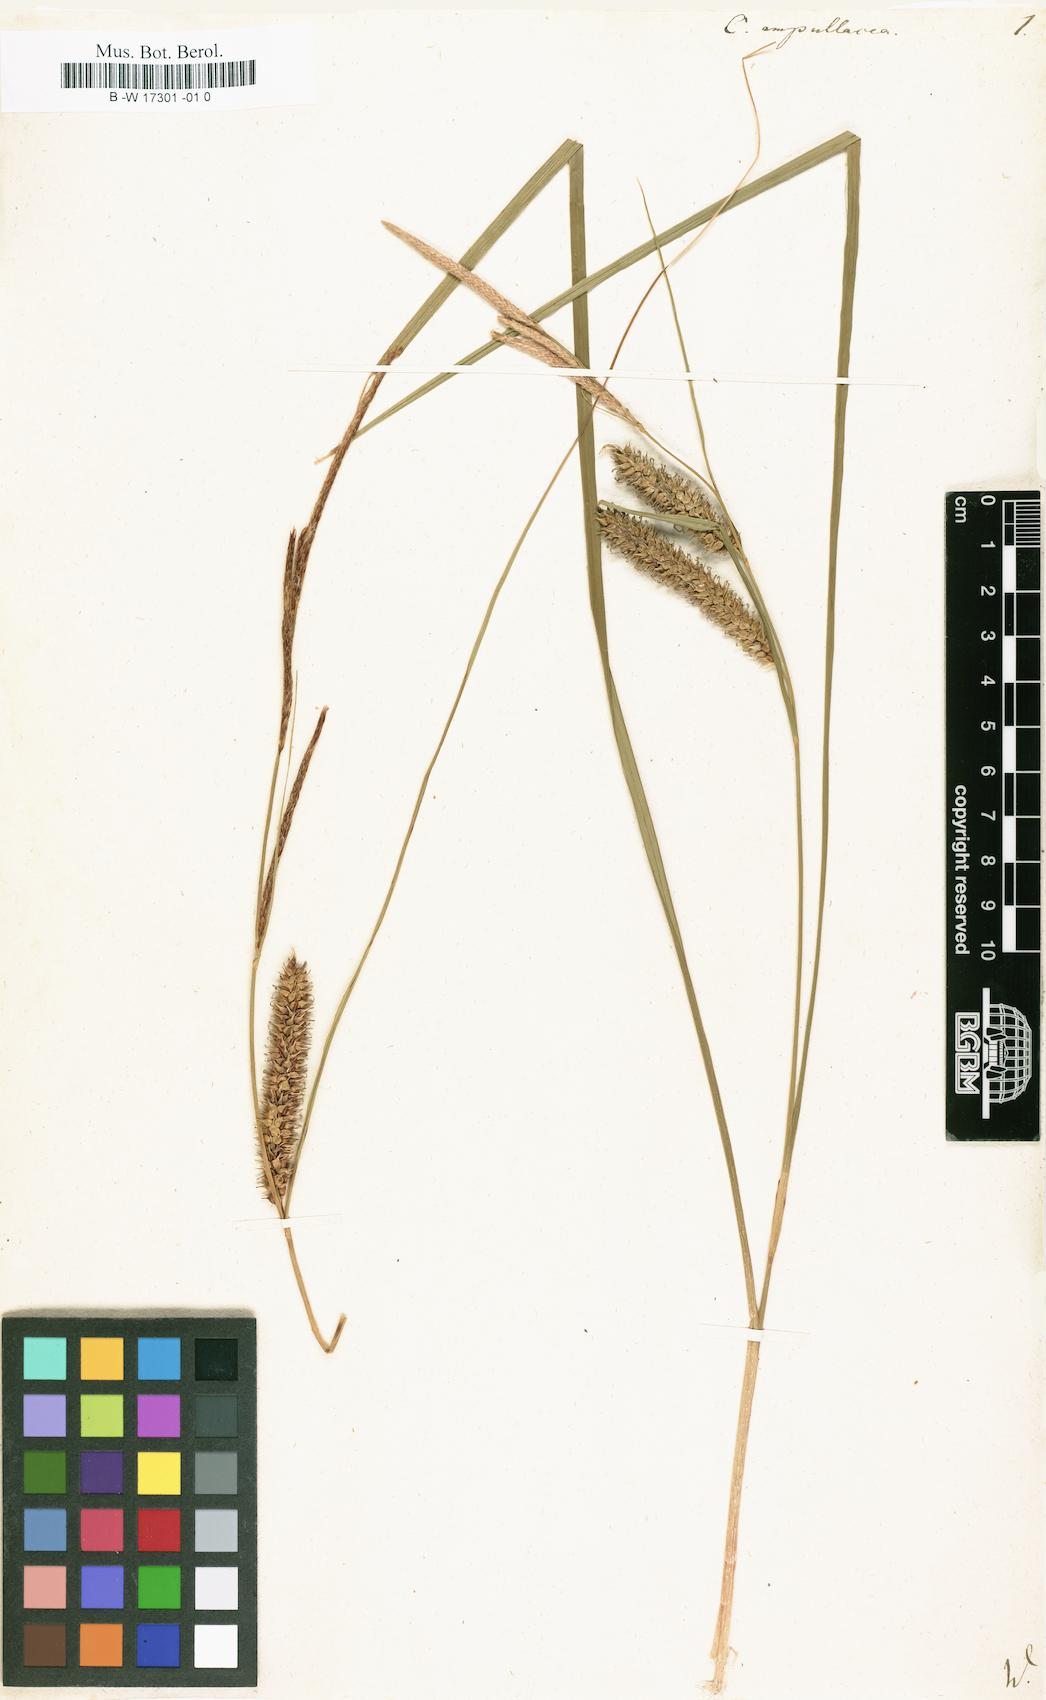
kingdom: Plantae
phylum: Tracheophyta
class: Liliopsida
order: Poales
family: Cyperaceae
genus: Carex
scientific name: Carex rostrata
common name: Bottle sedge
